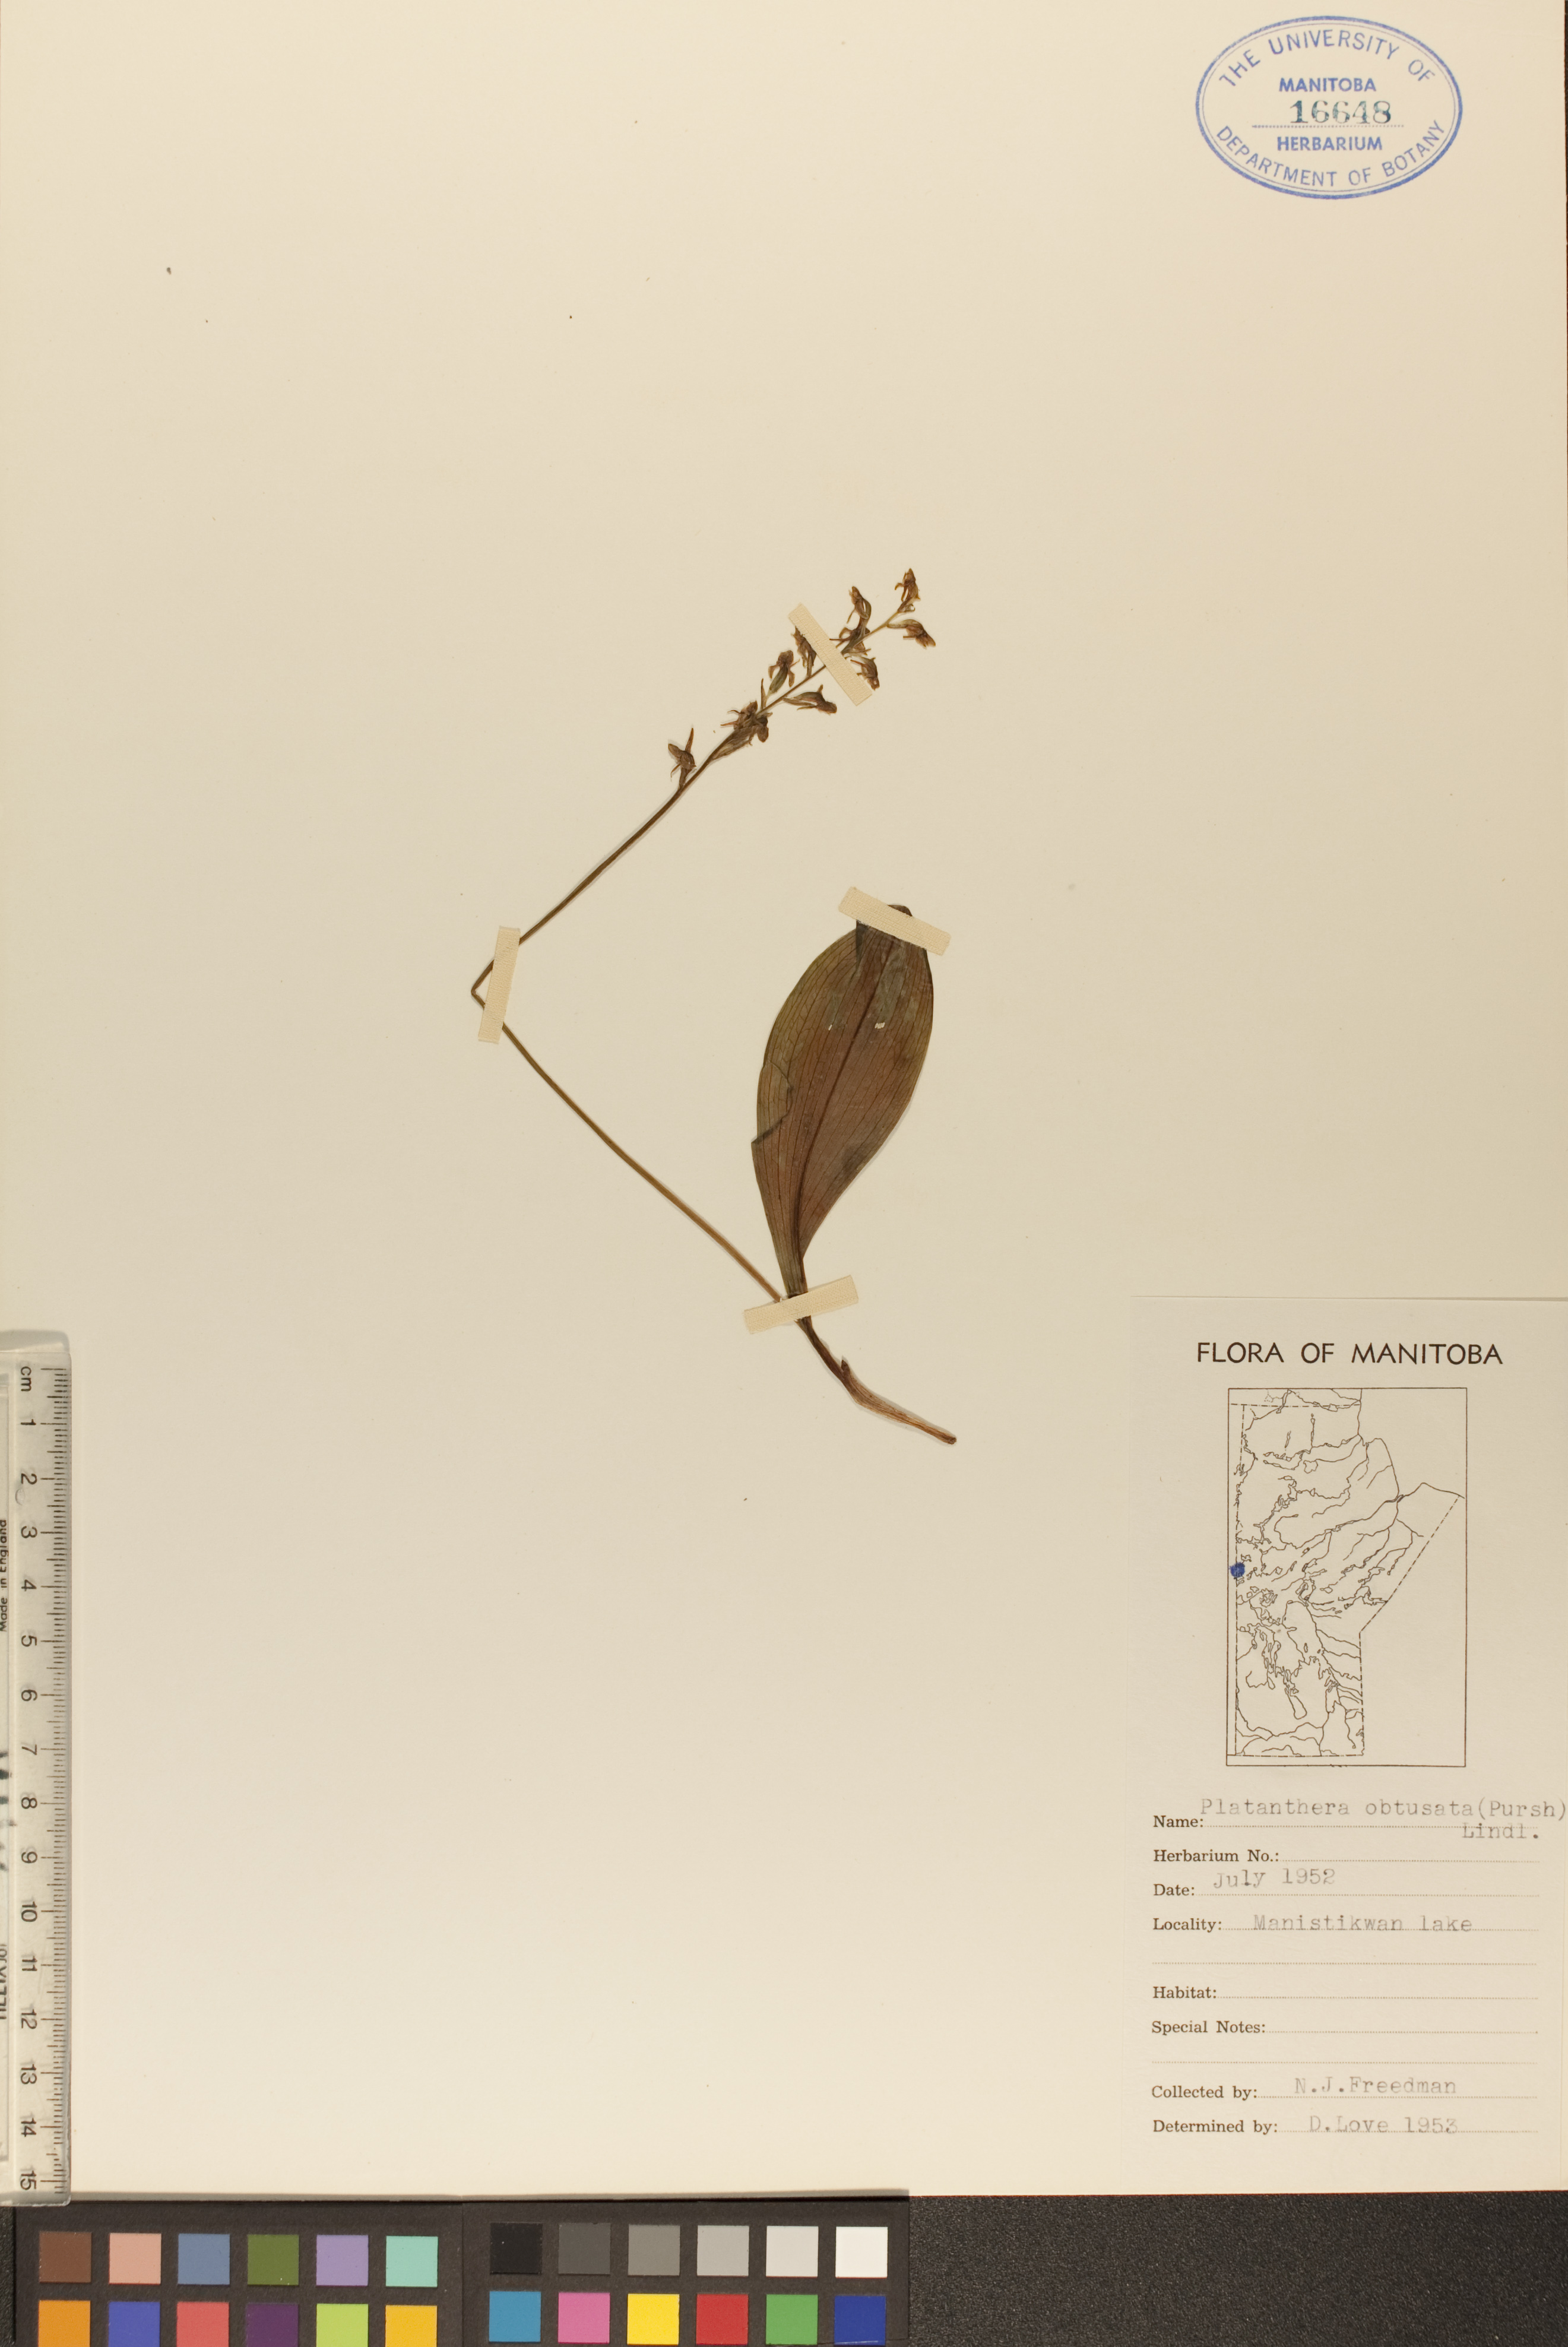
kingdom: Plantae
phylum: Tracheophyta
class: Liliopsida
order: Asparagales
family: Orchidaceae
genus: Platanthera
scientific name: Platanthera obtusata
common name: Blunt bog orchid
